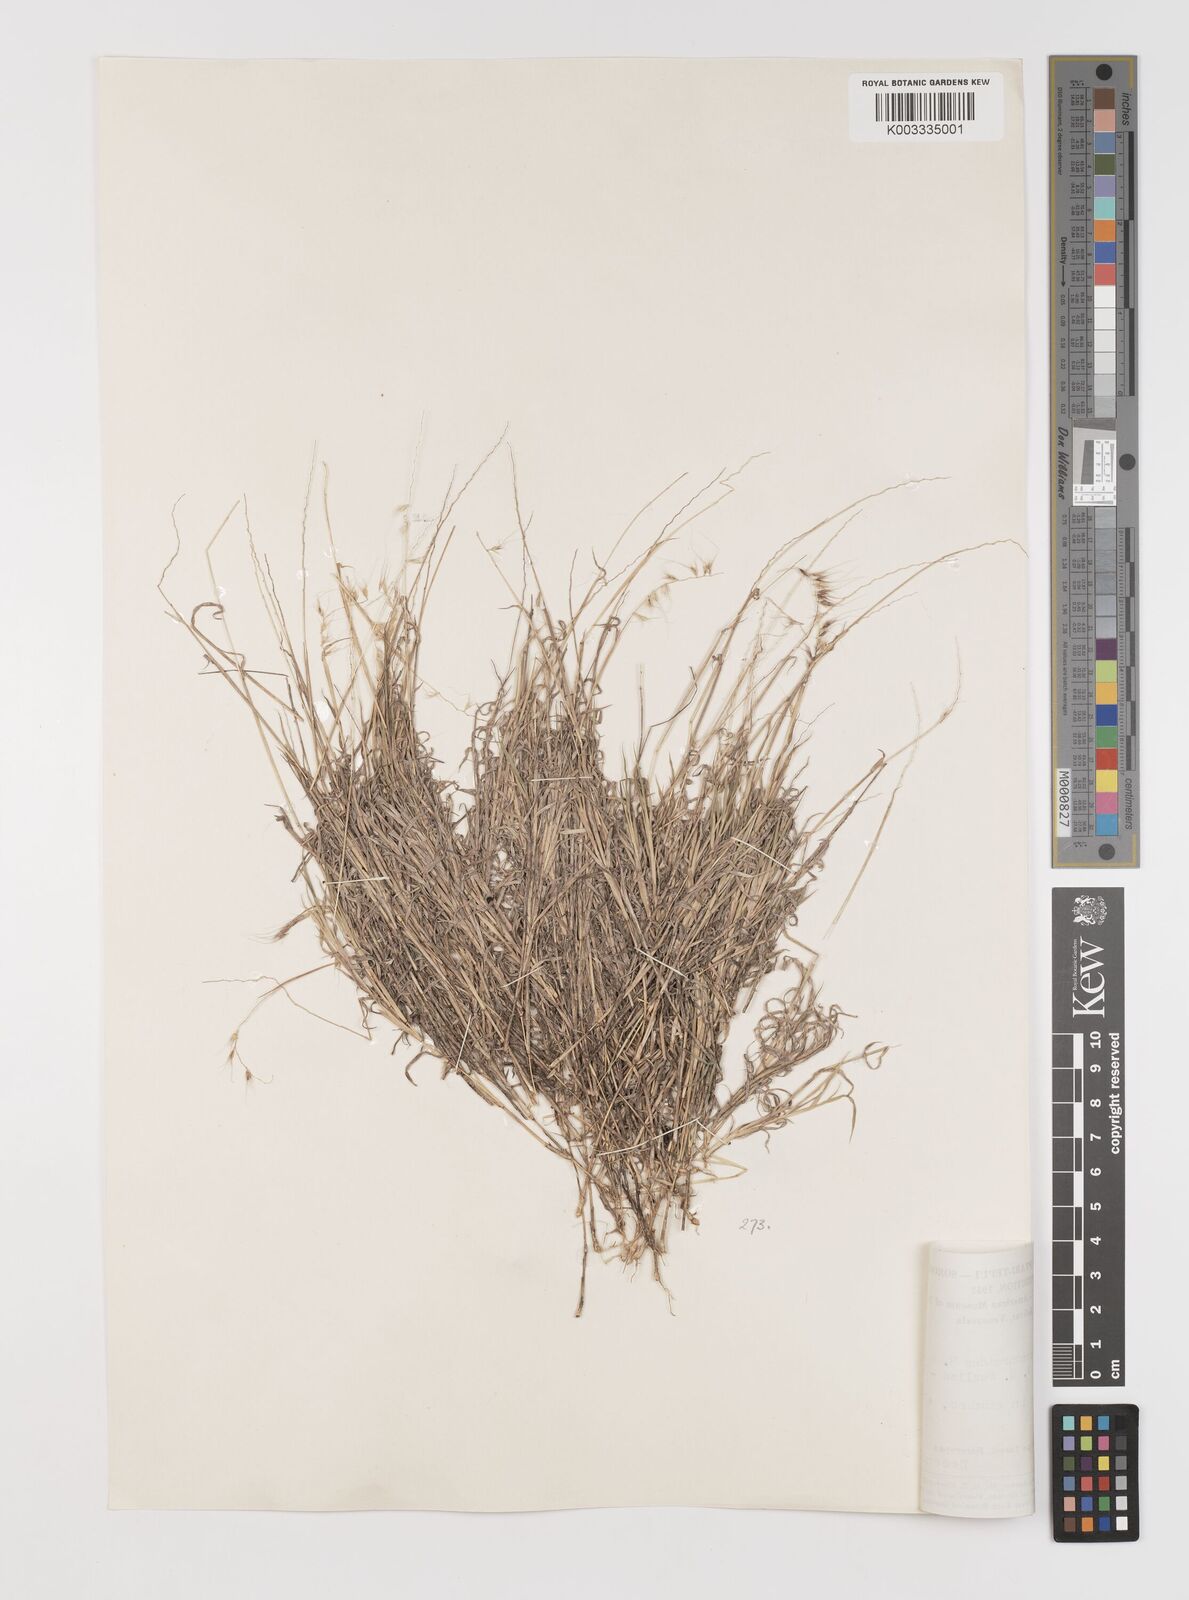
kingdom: Plantae
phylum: Tracheophyta
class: Liliopsida
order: Poales
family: Poaceae
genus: Muhlenbergia
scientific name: Muhlenbergia cenchroides
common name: Relaxgrass
